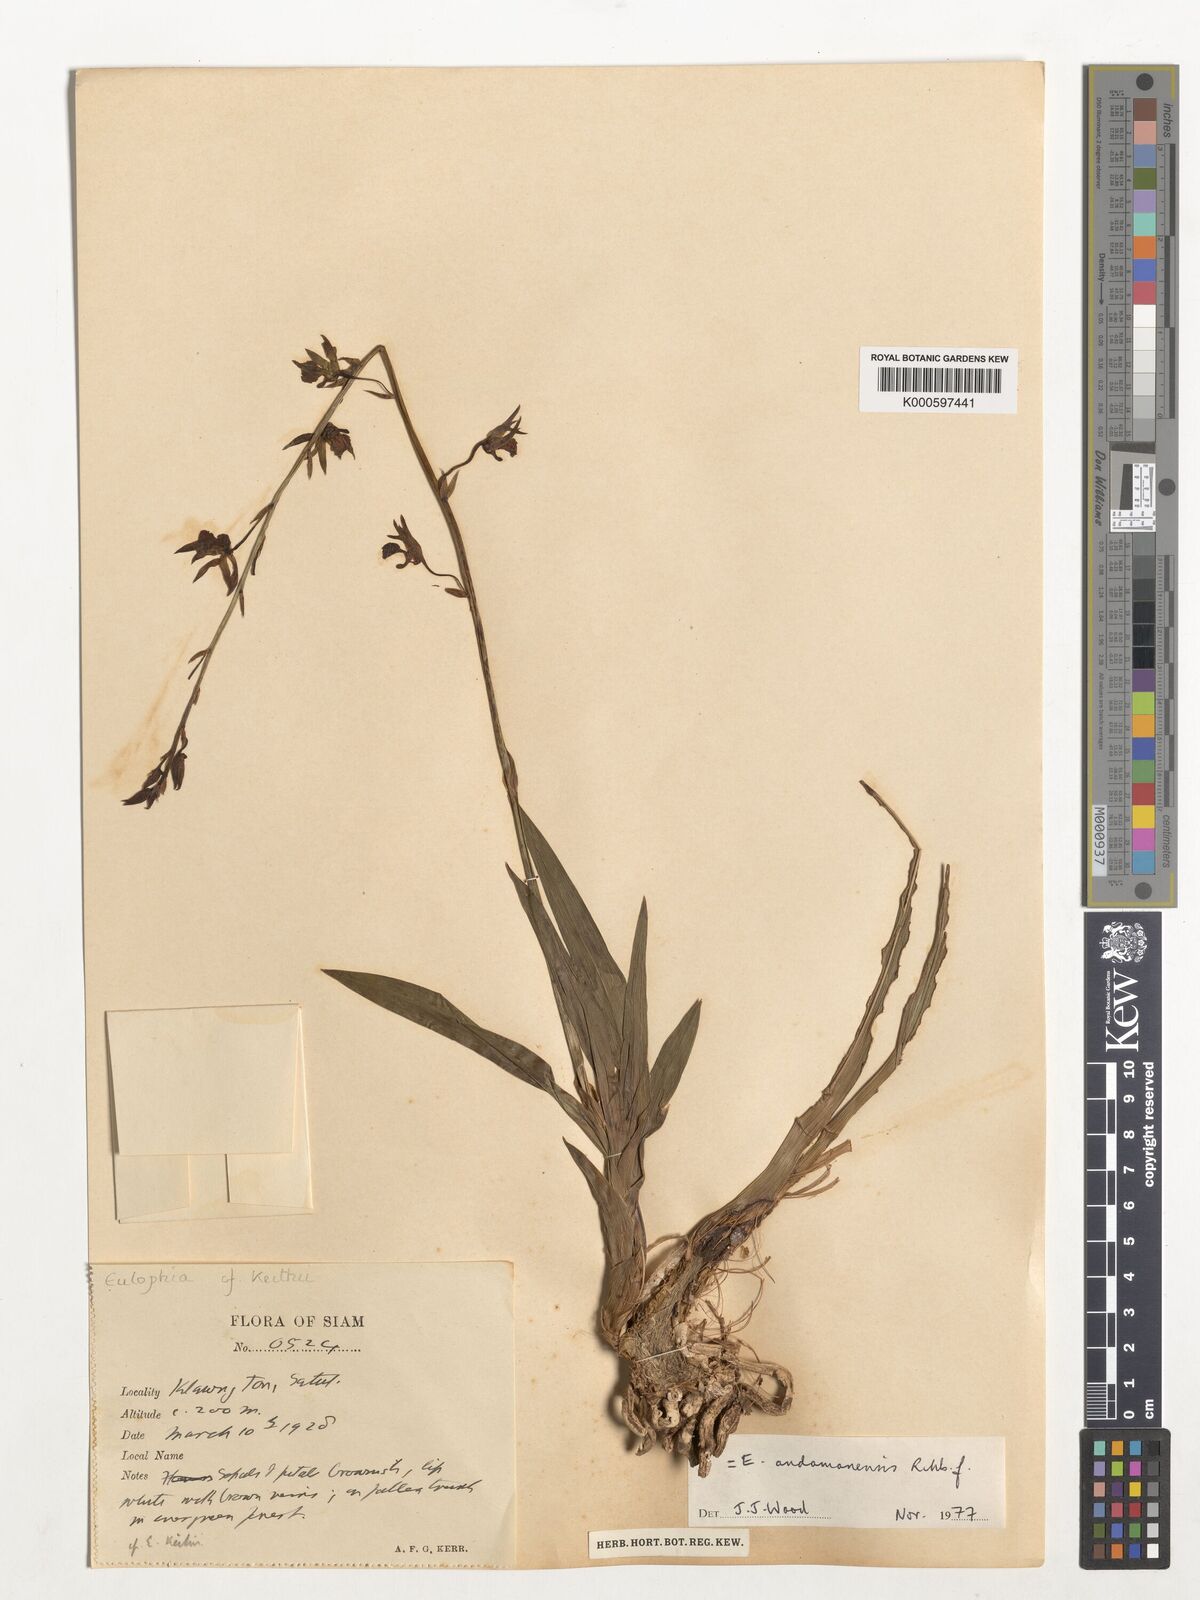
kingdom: Plantae
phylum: Tracheophyta
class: Liliopsida
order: Asparagales
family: Orchidaceae
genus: Eulophia
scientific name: Eulophia andamanensis
